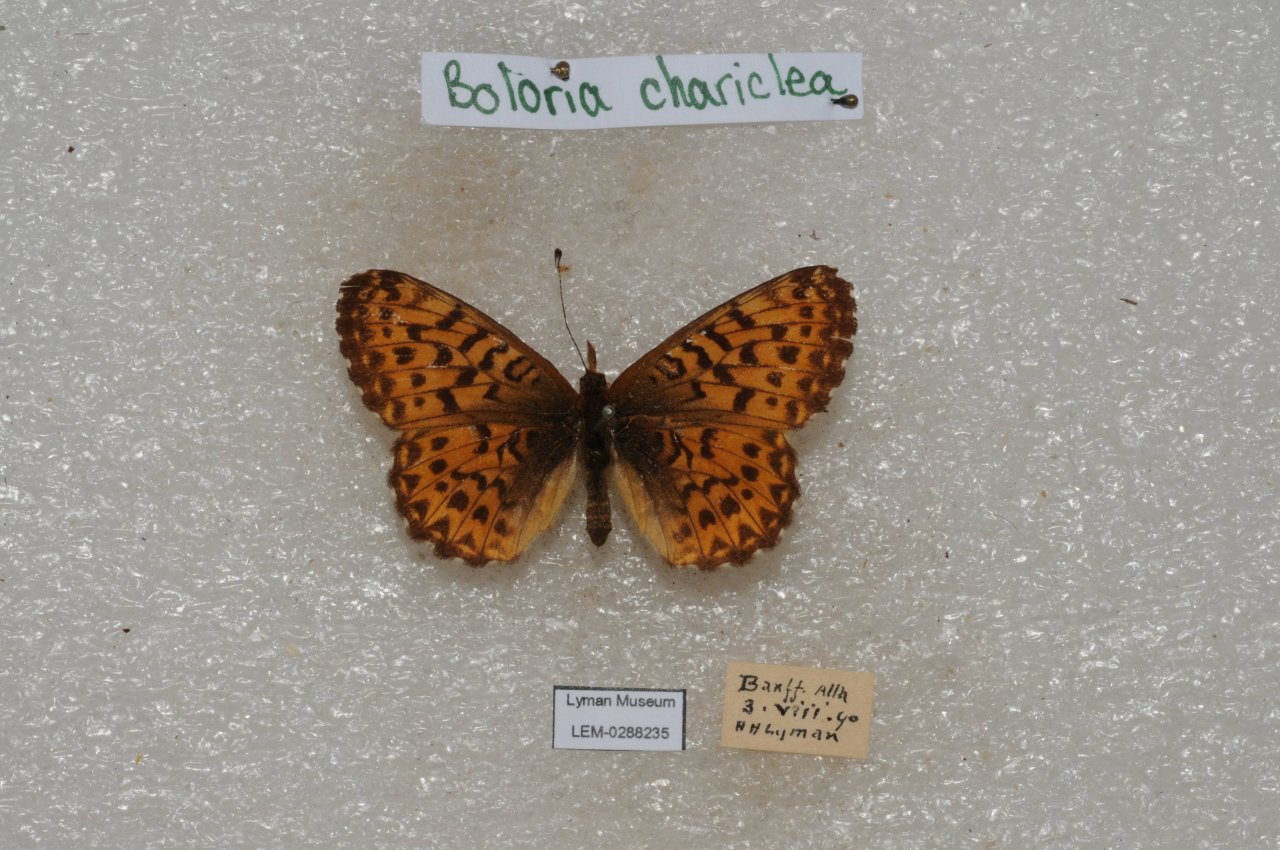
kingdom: Animalia
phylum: Arthropoda
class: Insecta
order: Lepidoptera
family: Nymphalidae
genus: Boloria
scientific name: Boloria chariclea
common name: Arctic Fritillary
